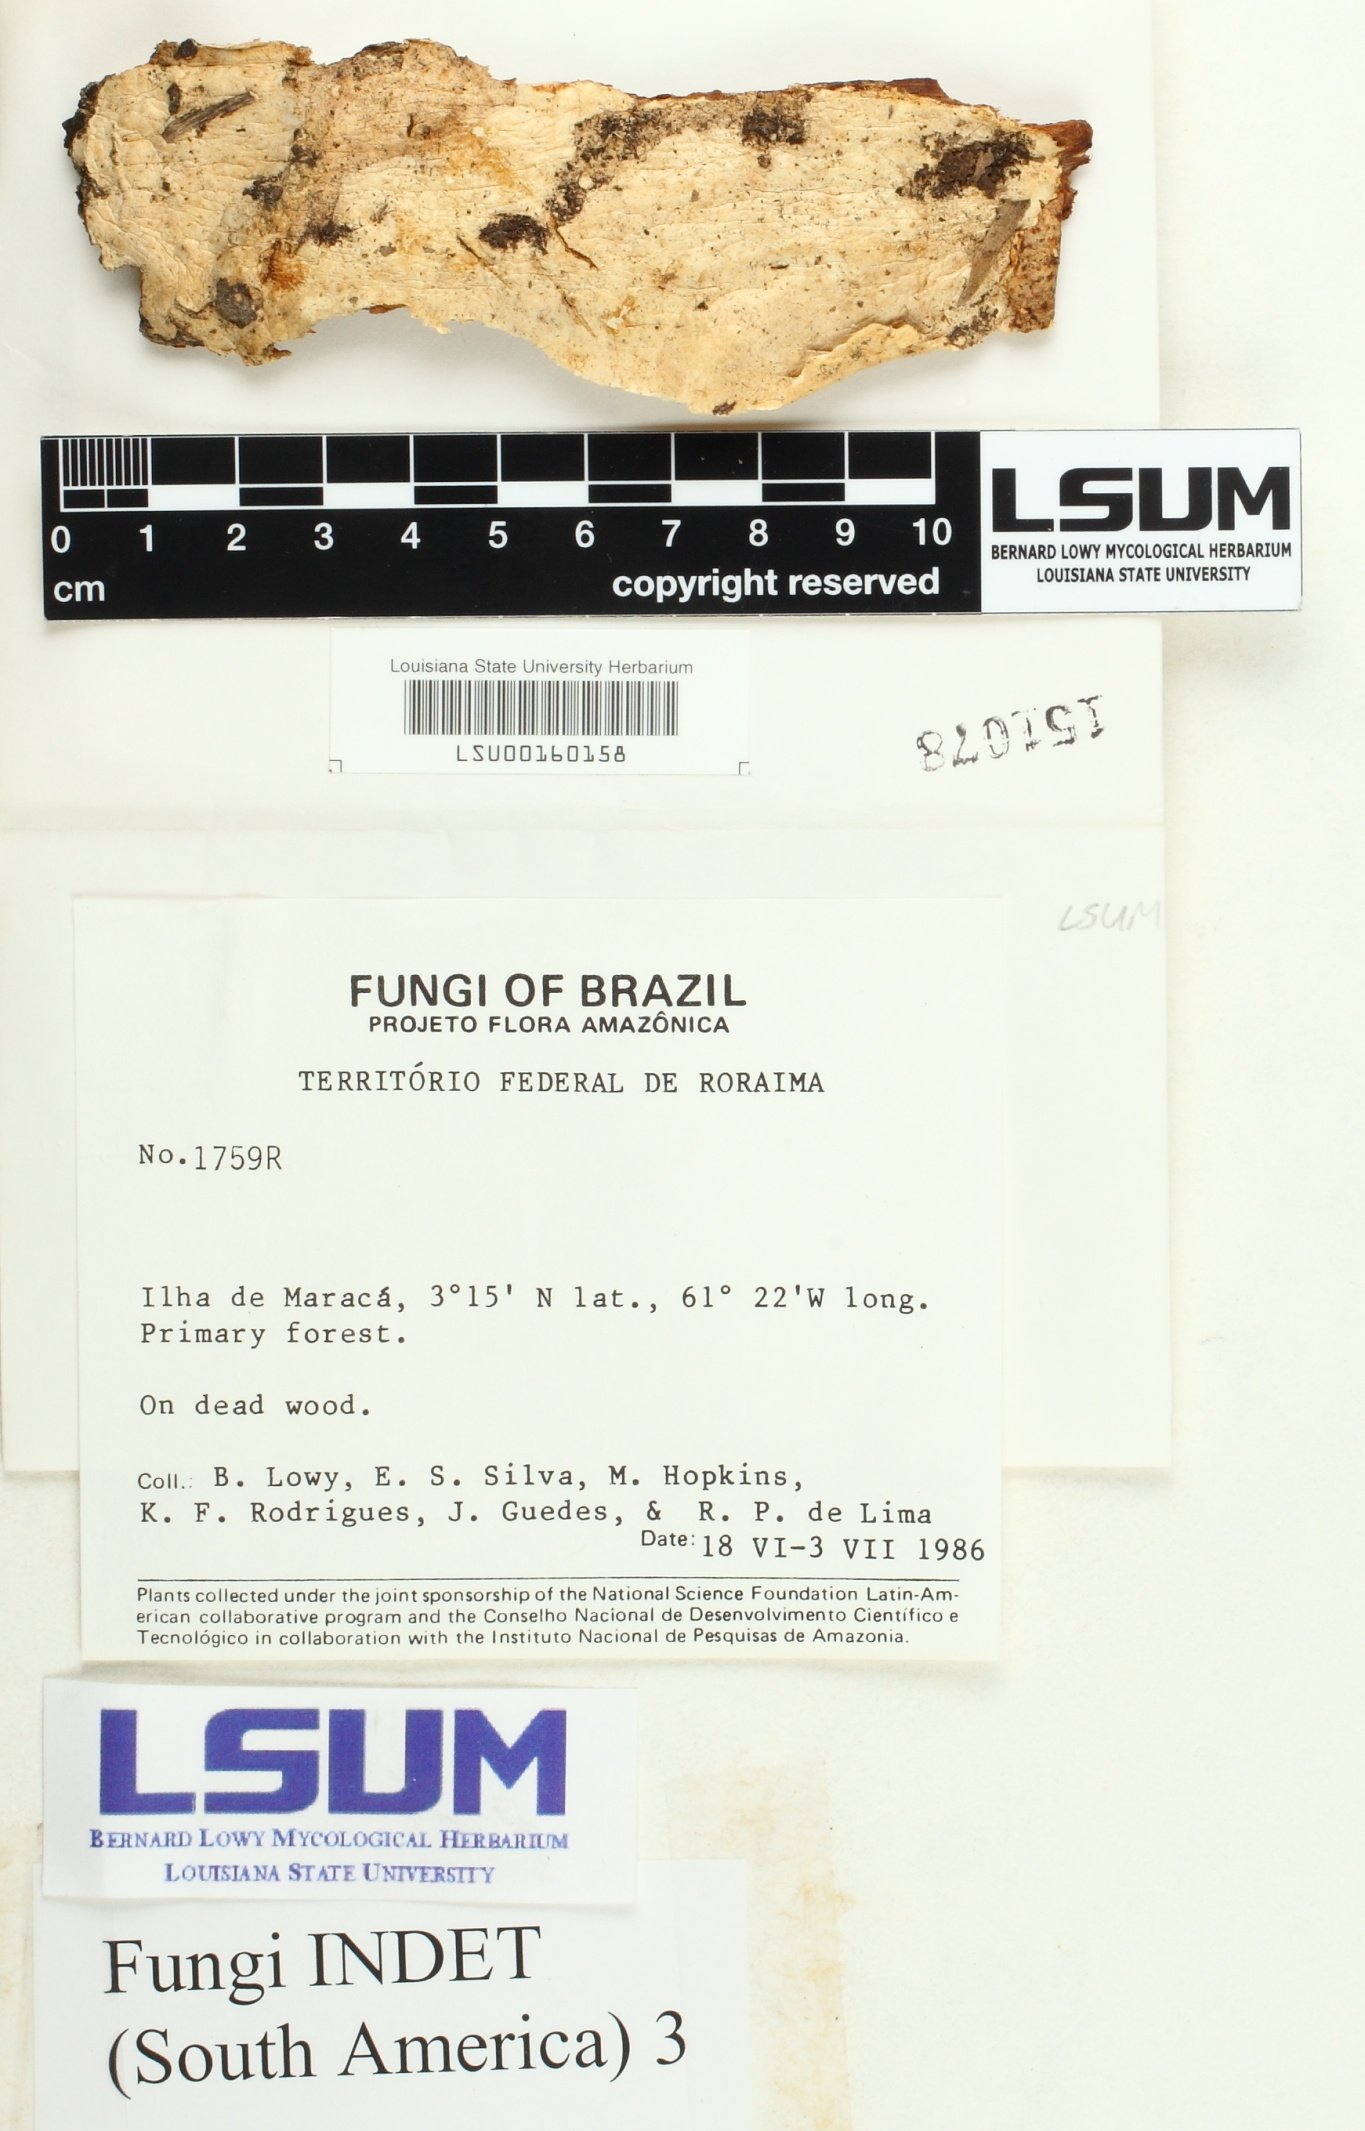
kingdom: Fungi
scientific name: Fungi
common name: Fungi
